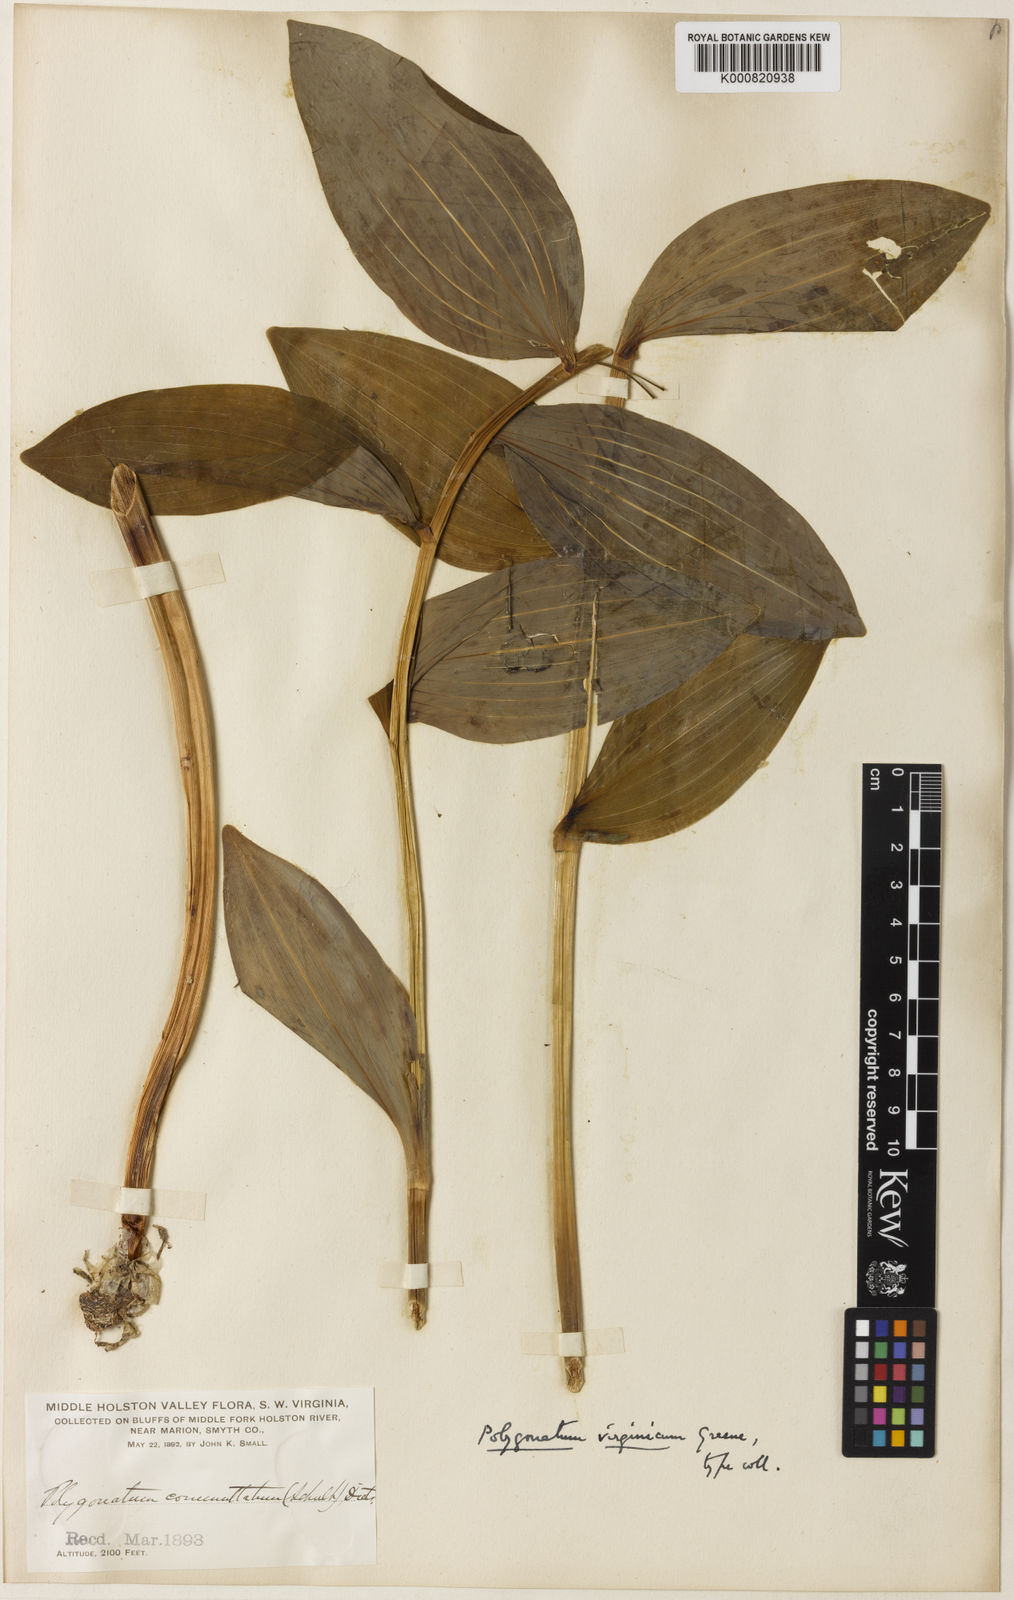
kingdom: Plantae
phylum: Tracheophyta
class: Liliopsida
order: Asparagales
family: Asparagaceae
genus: Polygonatum
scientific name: Polygonatum biflorum
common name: American solomon's-seal
